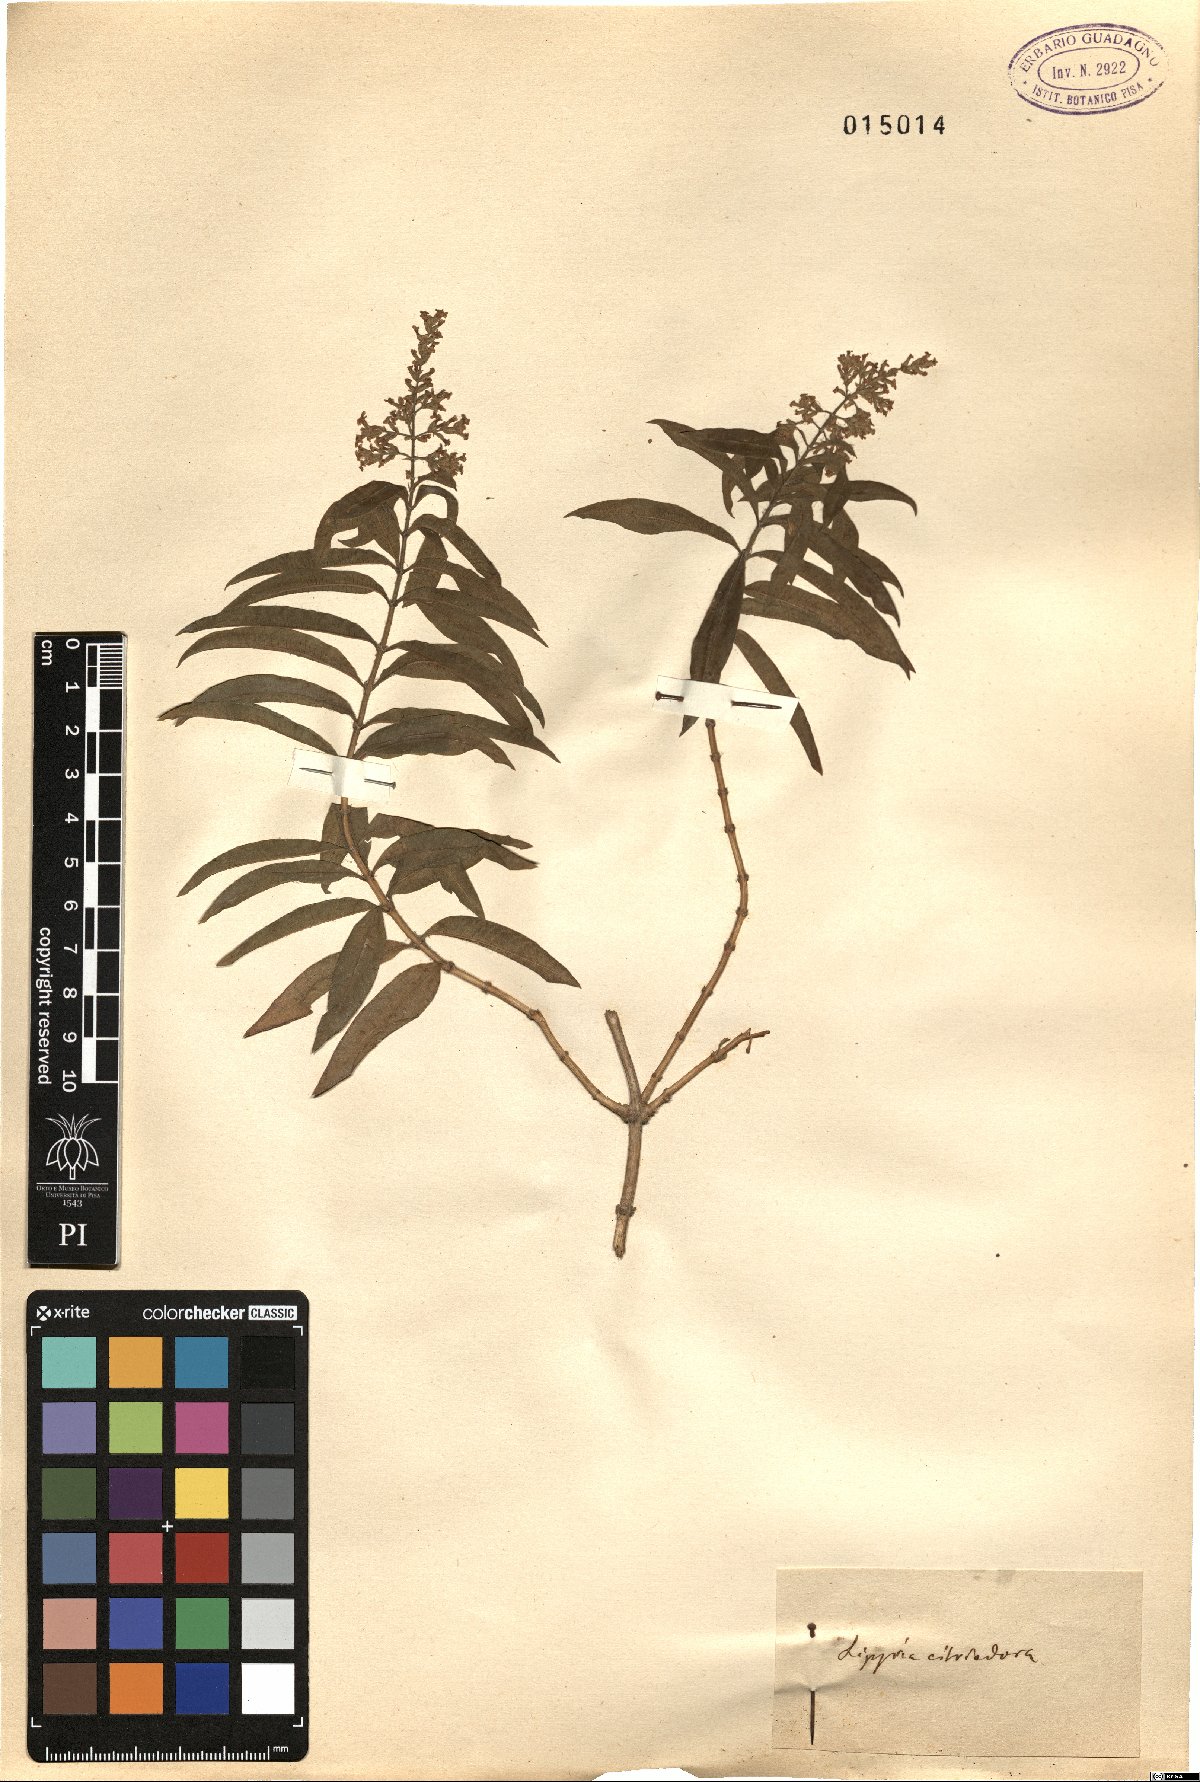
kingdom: Plantae
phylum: Tracheophyta
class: Magnoliopsida
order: Lamiales
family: Verbenaceae
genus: Aloysia
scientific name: Aloysia citrodora
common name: Lemon beebrush
